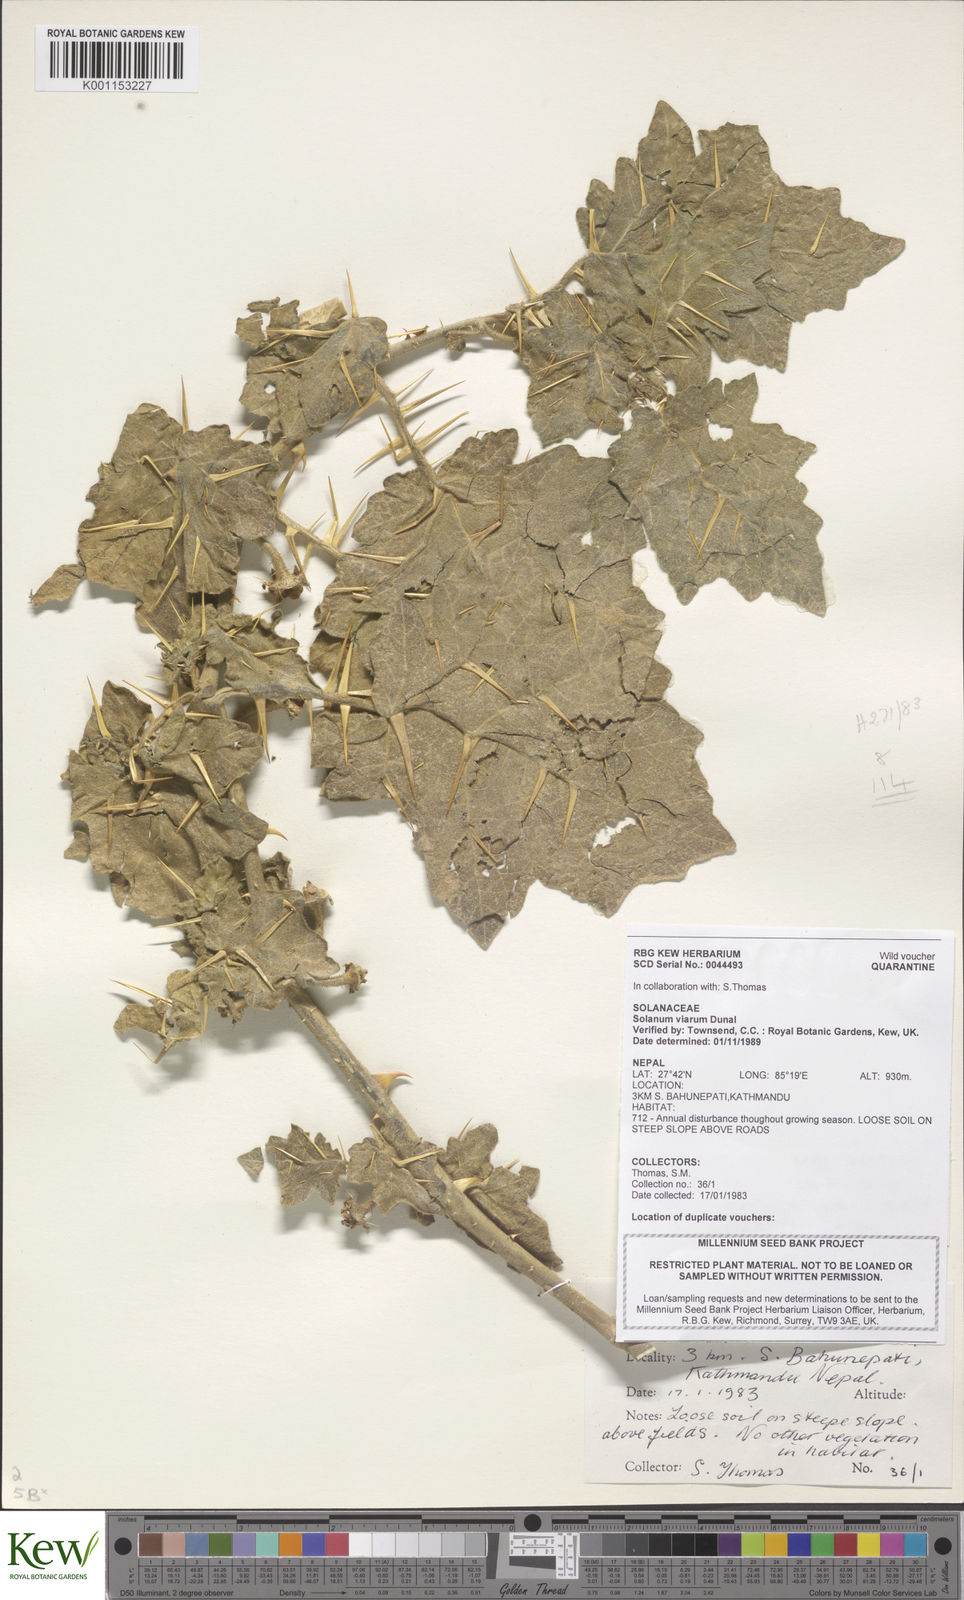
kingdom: Plantae
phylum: Tracheophyta
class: Magnoliopsida
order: Solanales
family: Solanaceae
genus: Solanum
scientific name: Solanum viarum
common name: Tropical soda apple
